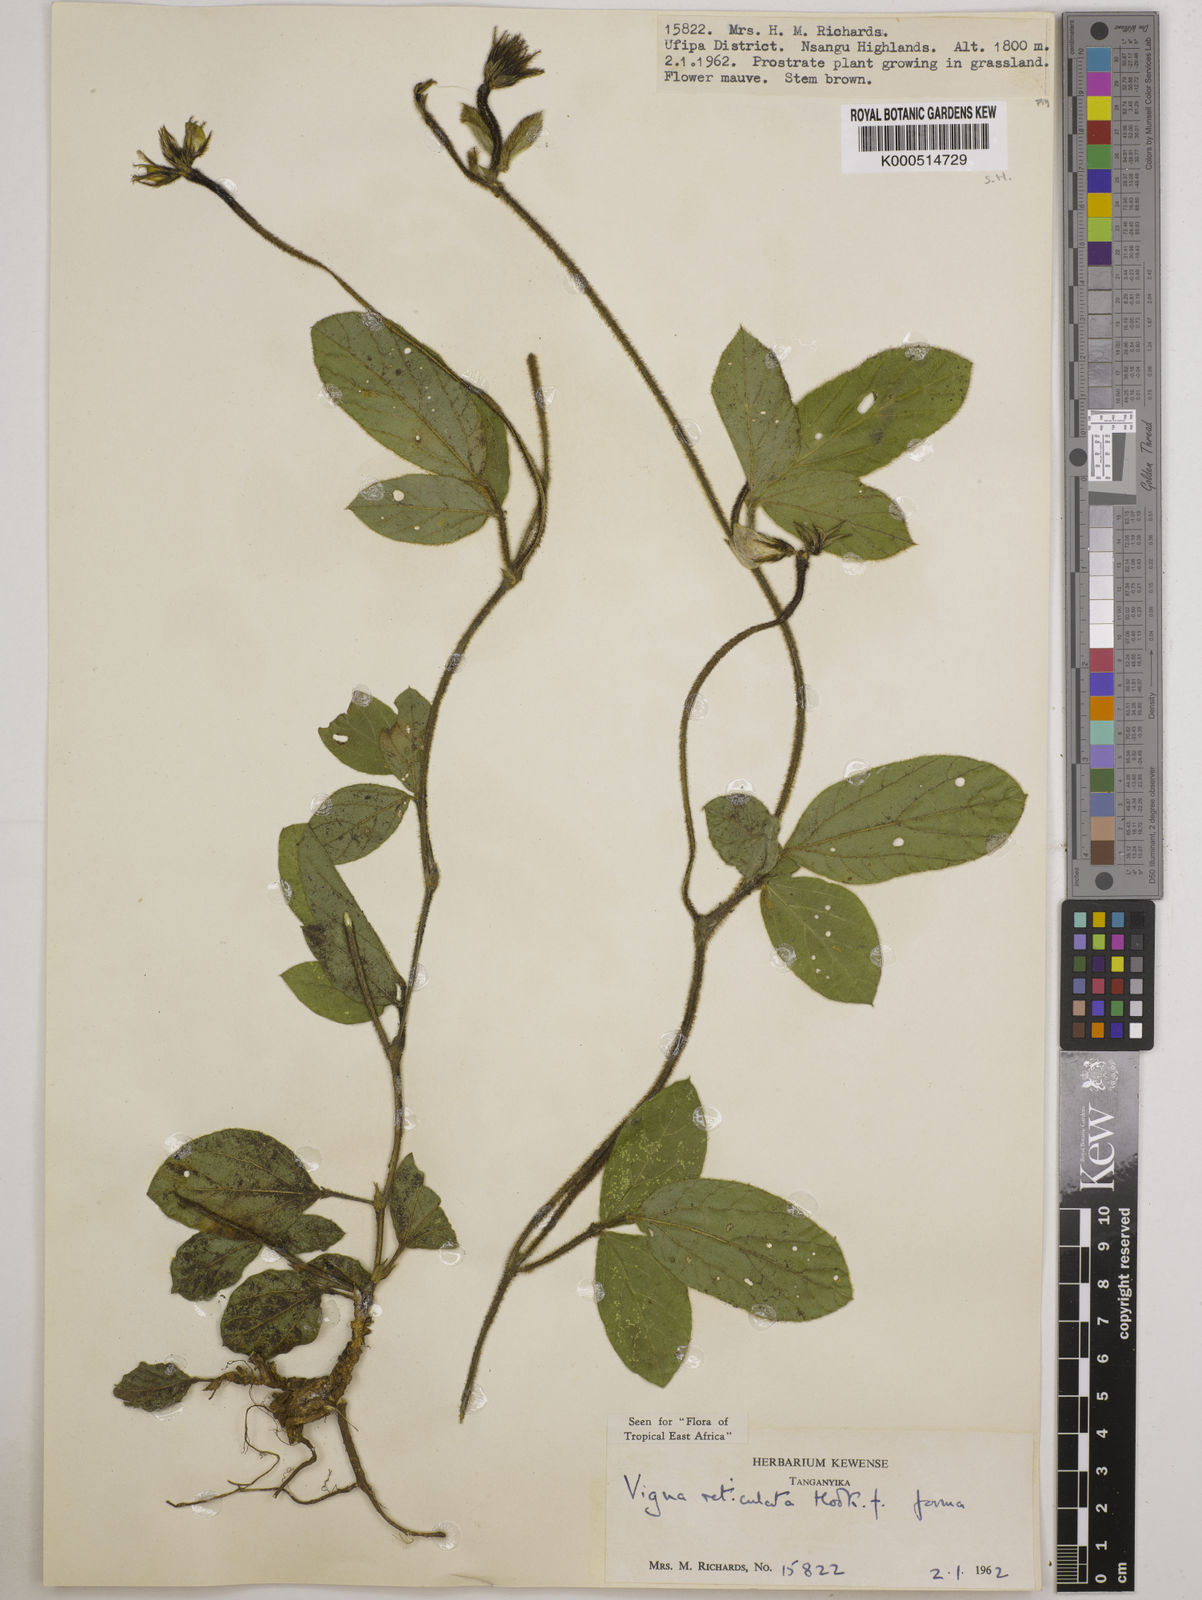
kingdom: Plantae
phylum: Tracheophyta
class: Magnoliopsida
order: Fabales
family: Fabaceae
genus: Vigna
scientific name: Vigna reticulata
